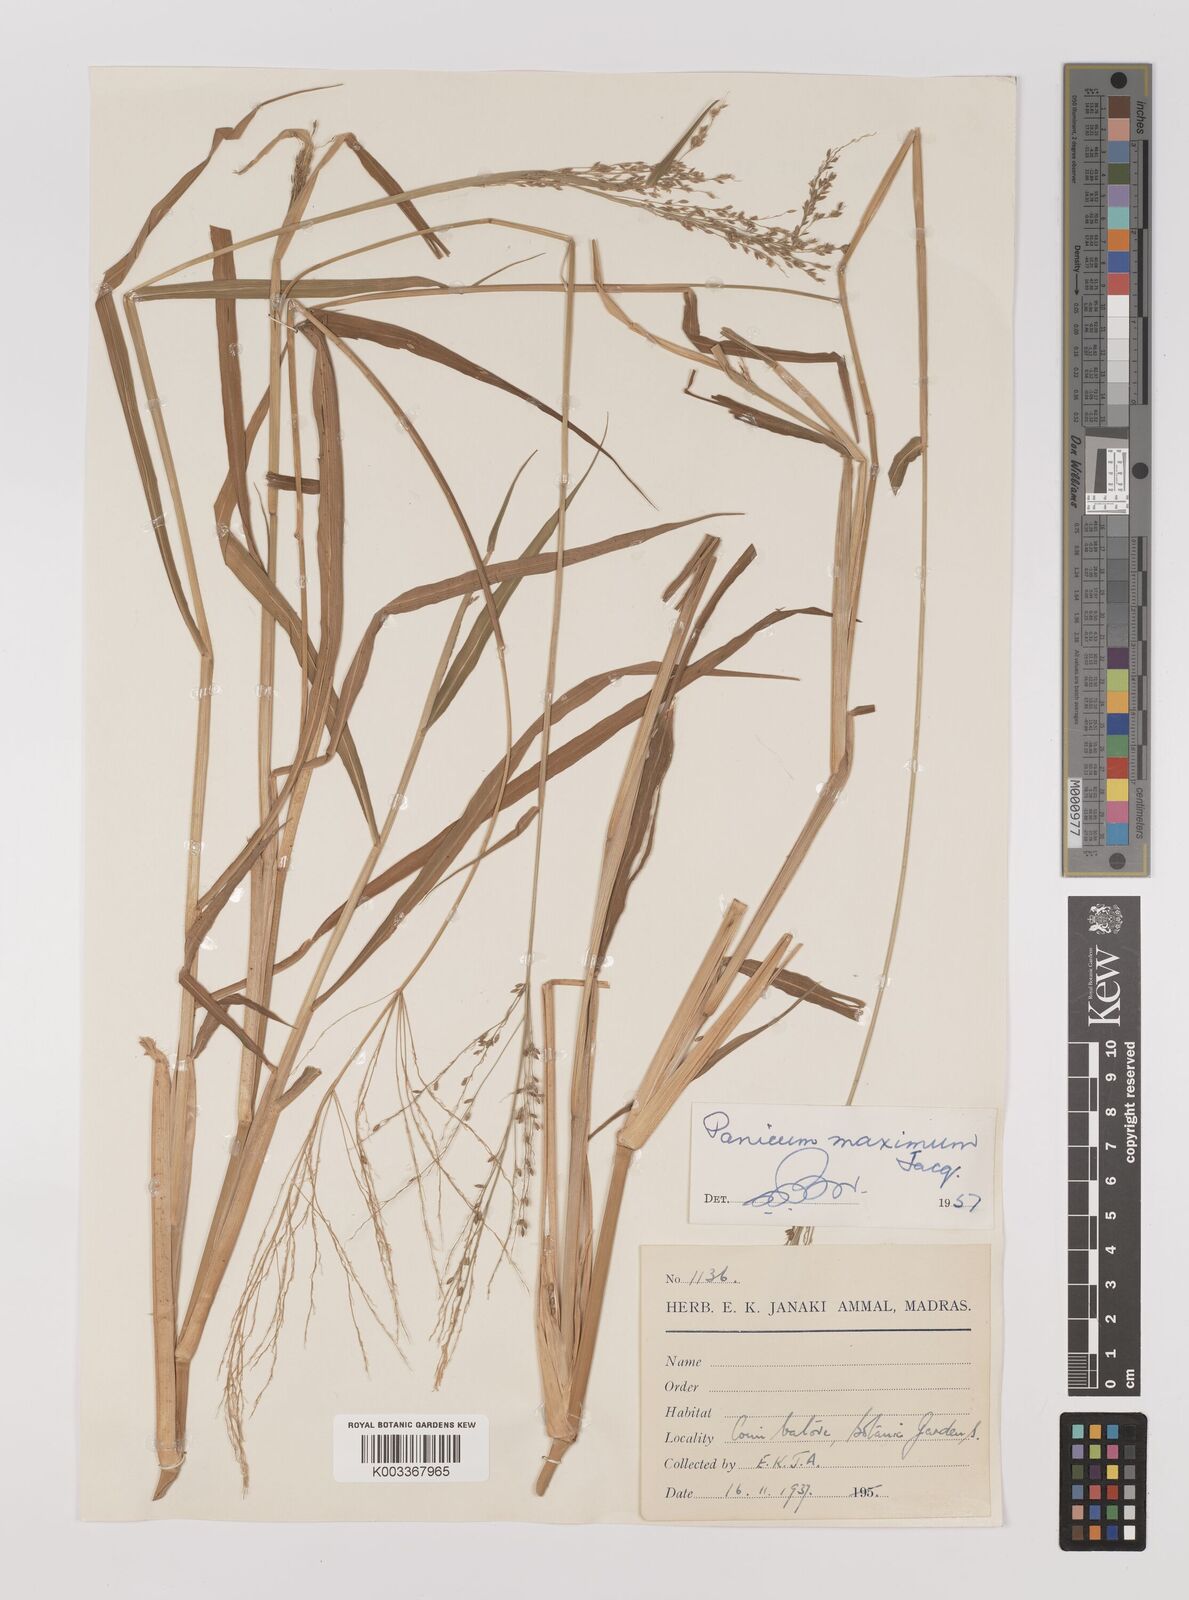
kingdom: Plantae
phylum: Tracheophyta
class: Liliopsida
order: Poales
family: Poaceae
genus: Megathyrsus
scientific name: Megathyrsus maximus
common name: Guineagrass
